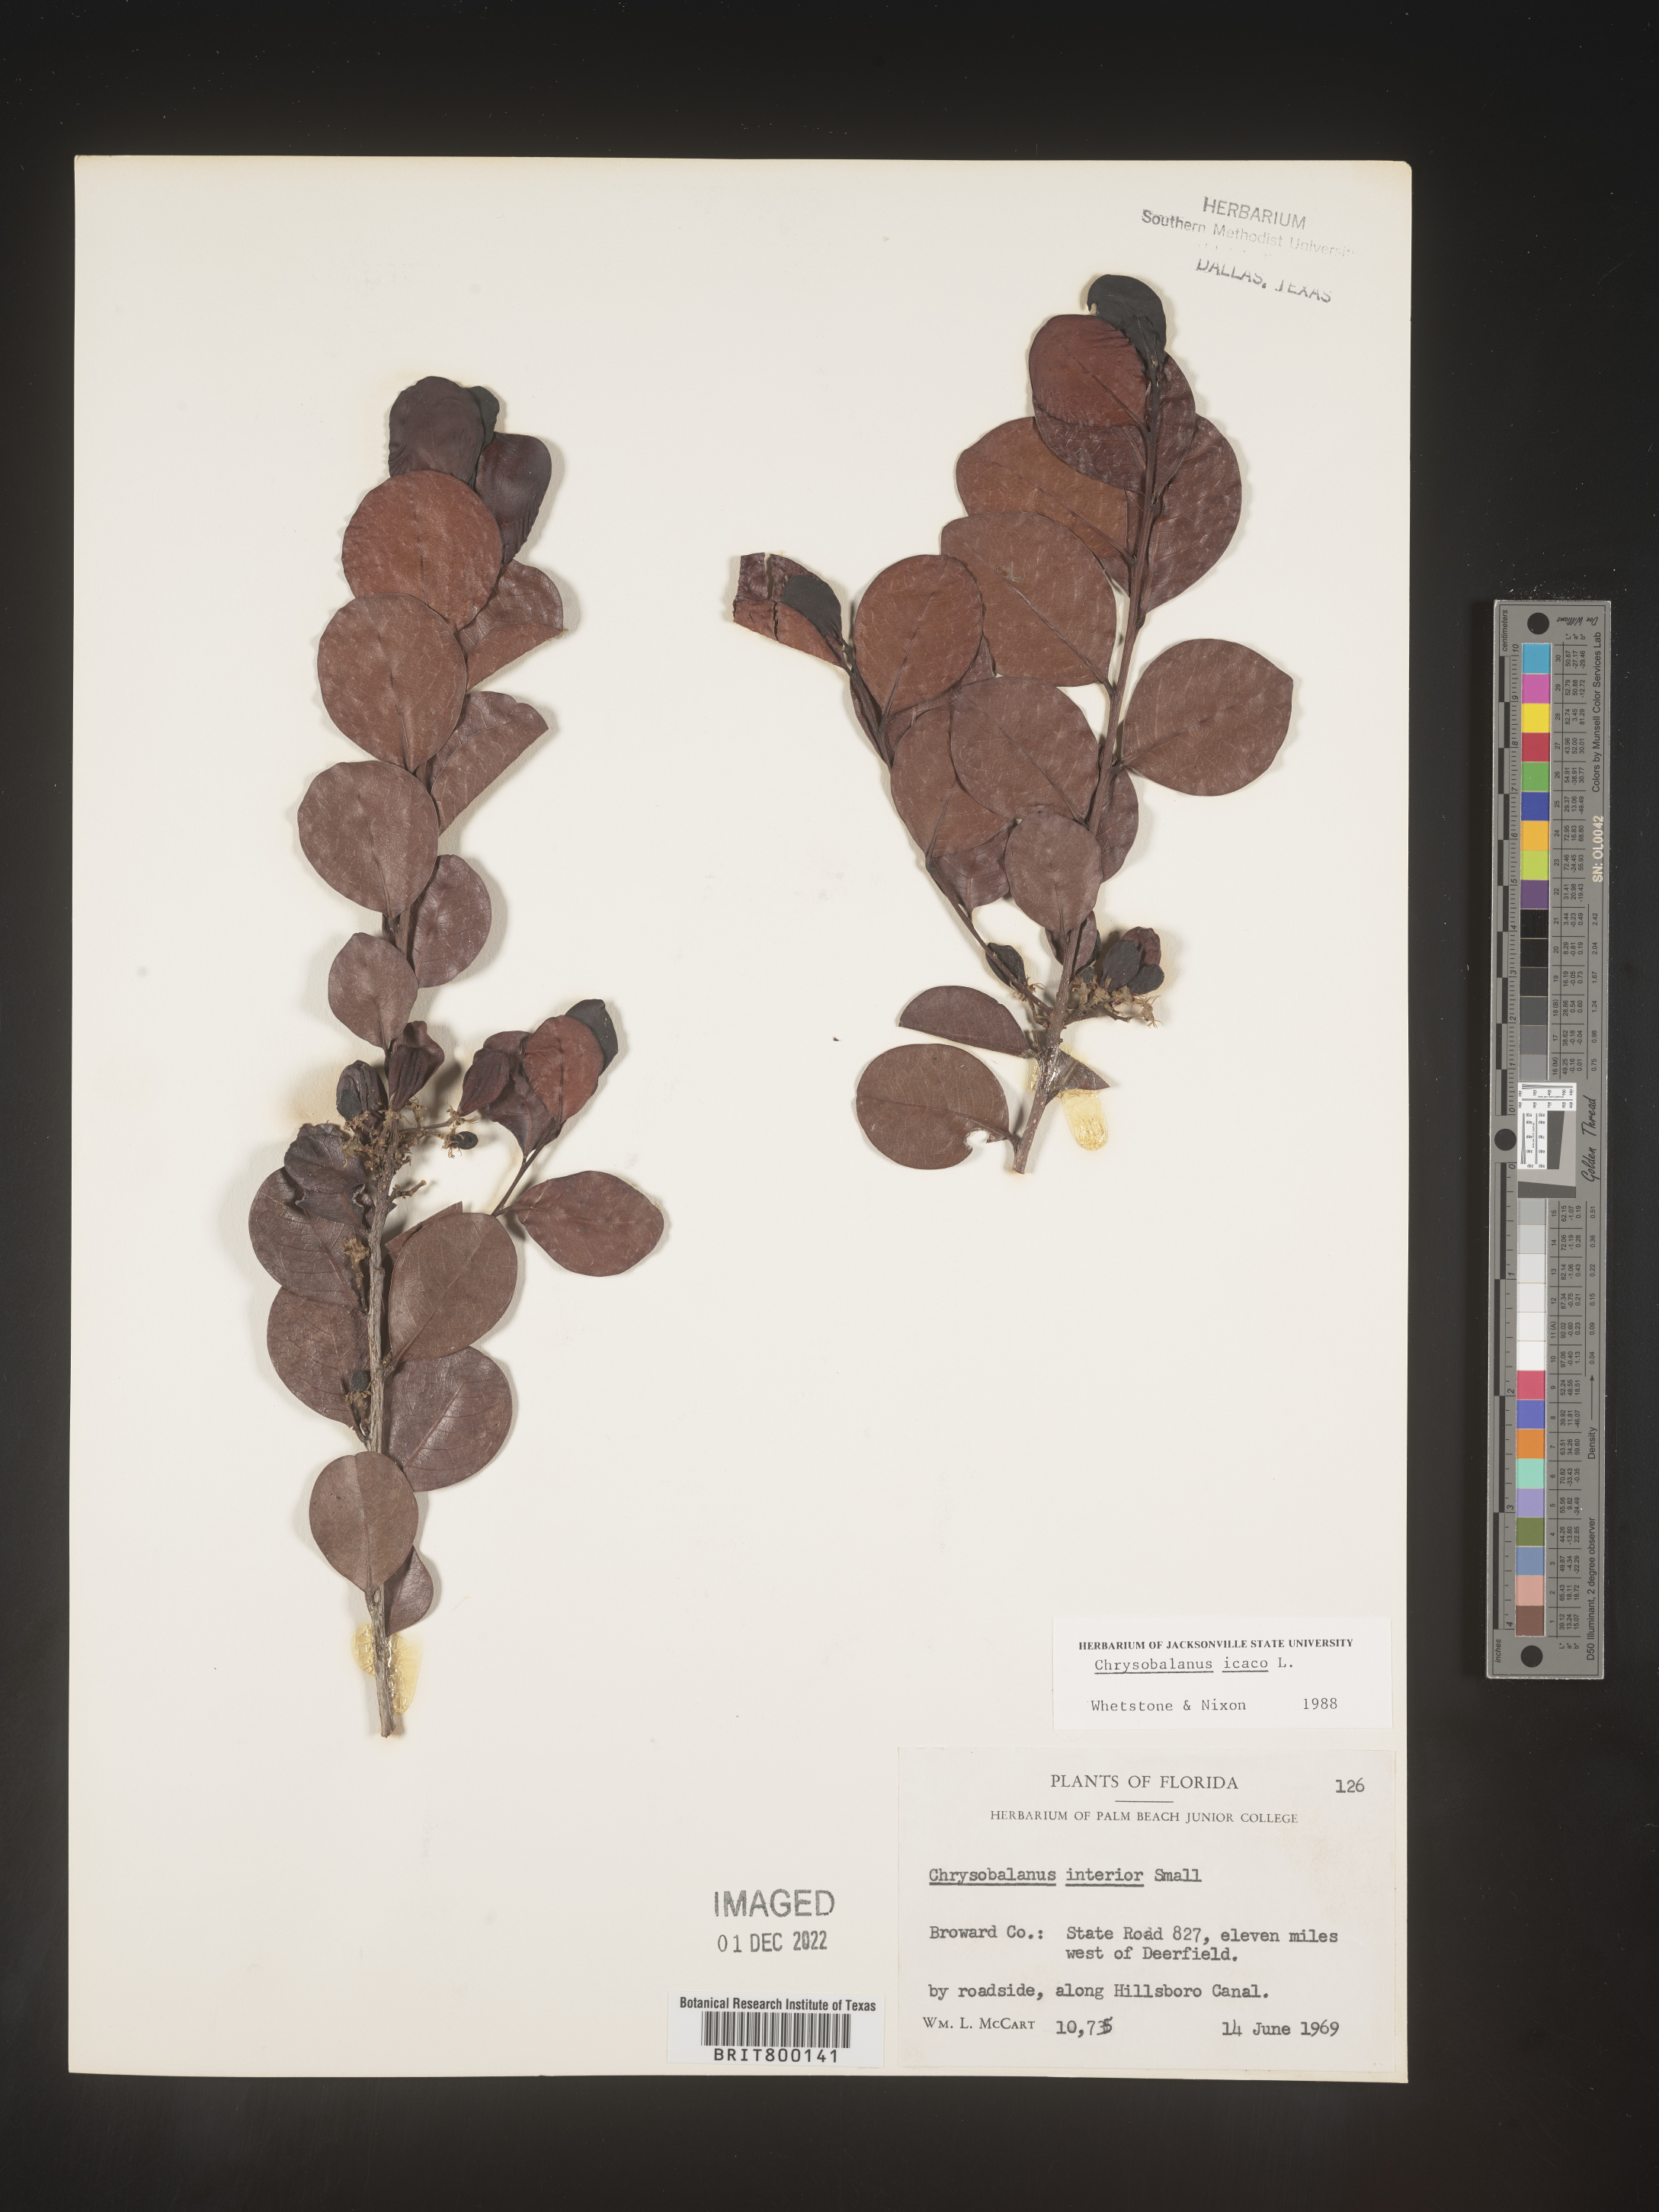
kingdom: Plantae
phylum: Tracheophyta
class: Magnoliopsida
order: Malpighiales
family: Chrysobalanaceae
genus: Chrysobalanus
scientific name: Chrysobalanus icaco
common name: Coco plum
